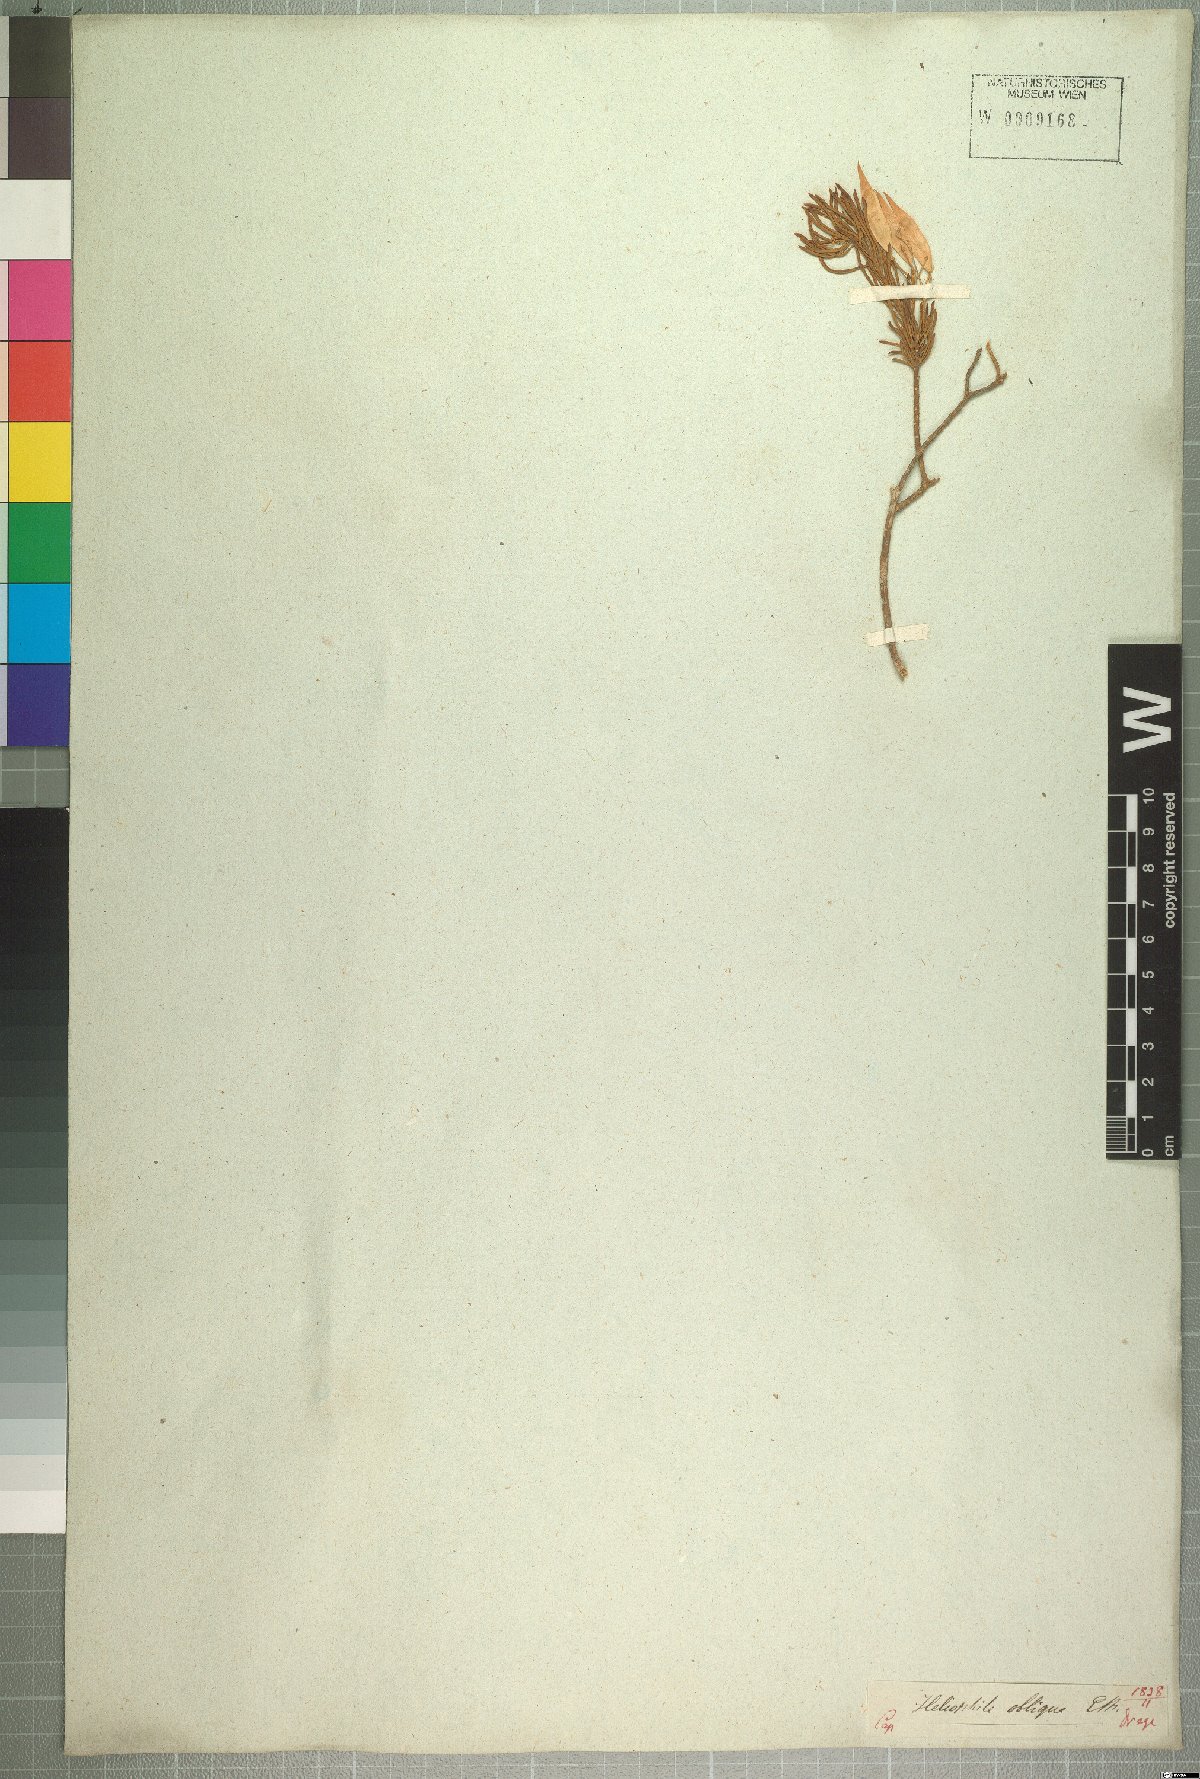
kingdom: Plantae
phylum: Tracheophyta
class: Magnoliopsida
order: Brassicales
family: Brassicaceae
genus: Heliophila
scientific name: Heliophila brachycarpa
